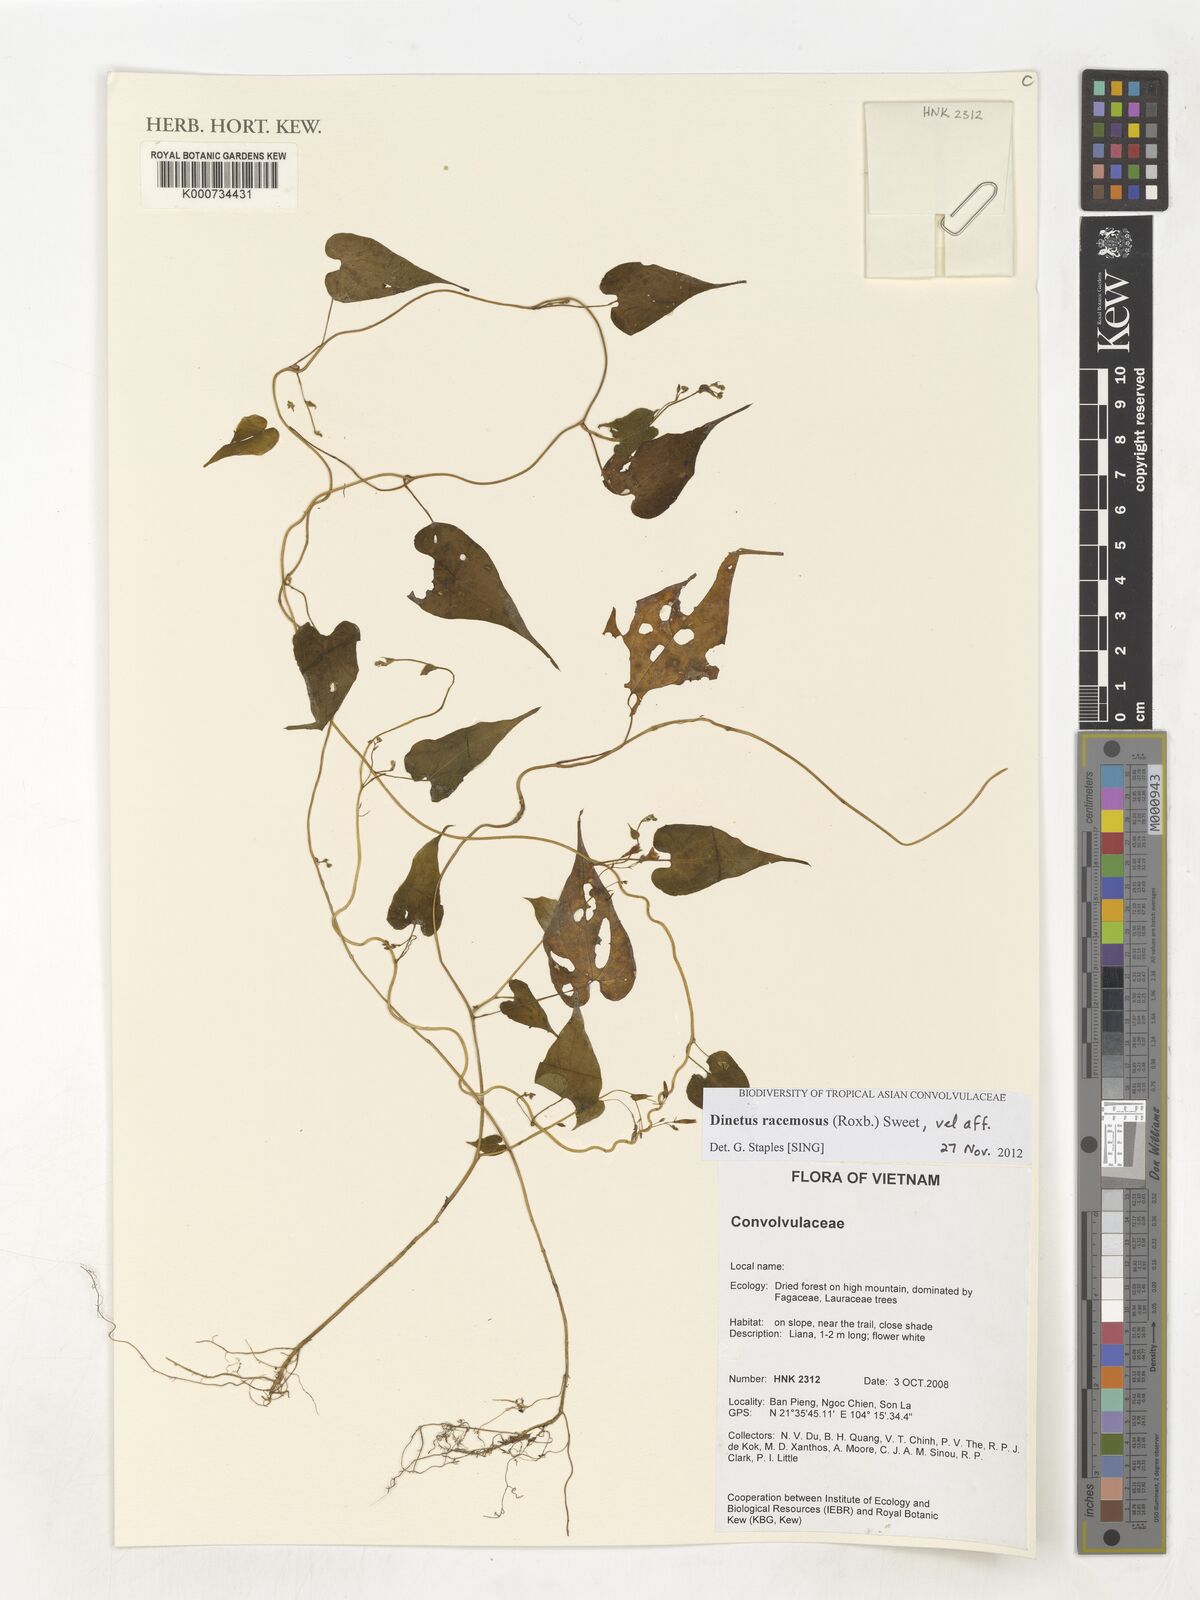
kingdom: Plantae
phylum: Tracheophyta
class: Magnoliopsida
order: Solanales
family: Convolvulaceae
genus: Dinetus
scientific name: Dinetus racemosus
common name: Snowcreeper
